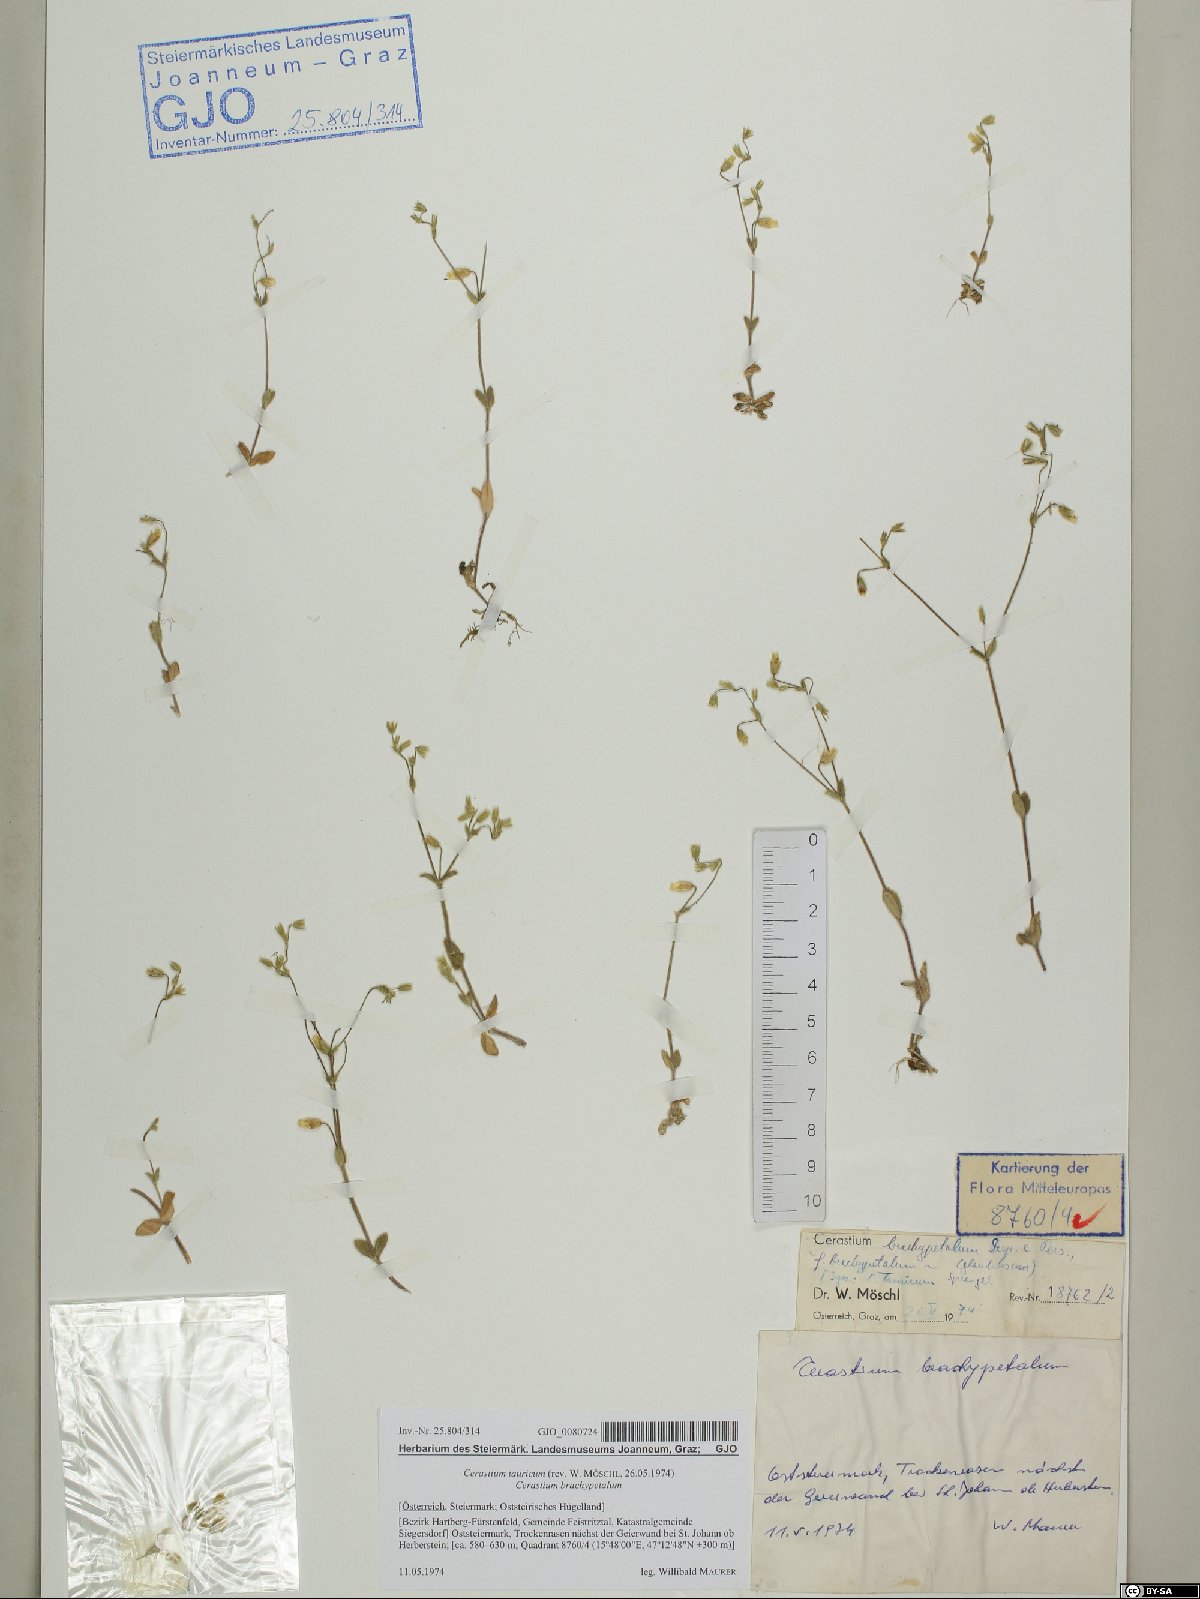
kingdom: Plantae
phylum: Tracheophyta
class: Magnoliopsida
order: Caryophyllales
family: Caryophyllaceae
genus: Cerastium
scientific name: Cerastium brachypetalum
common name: Grey mouse-ear
